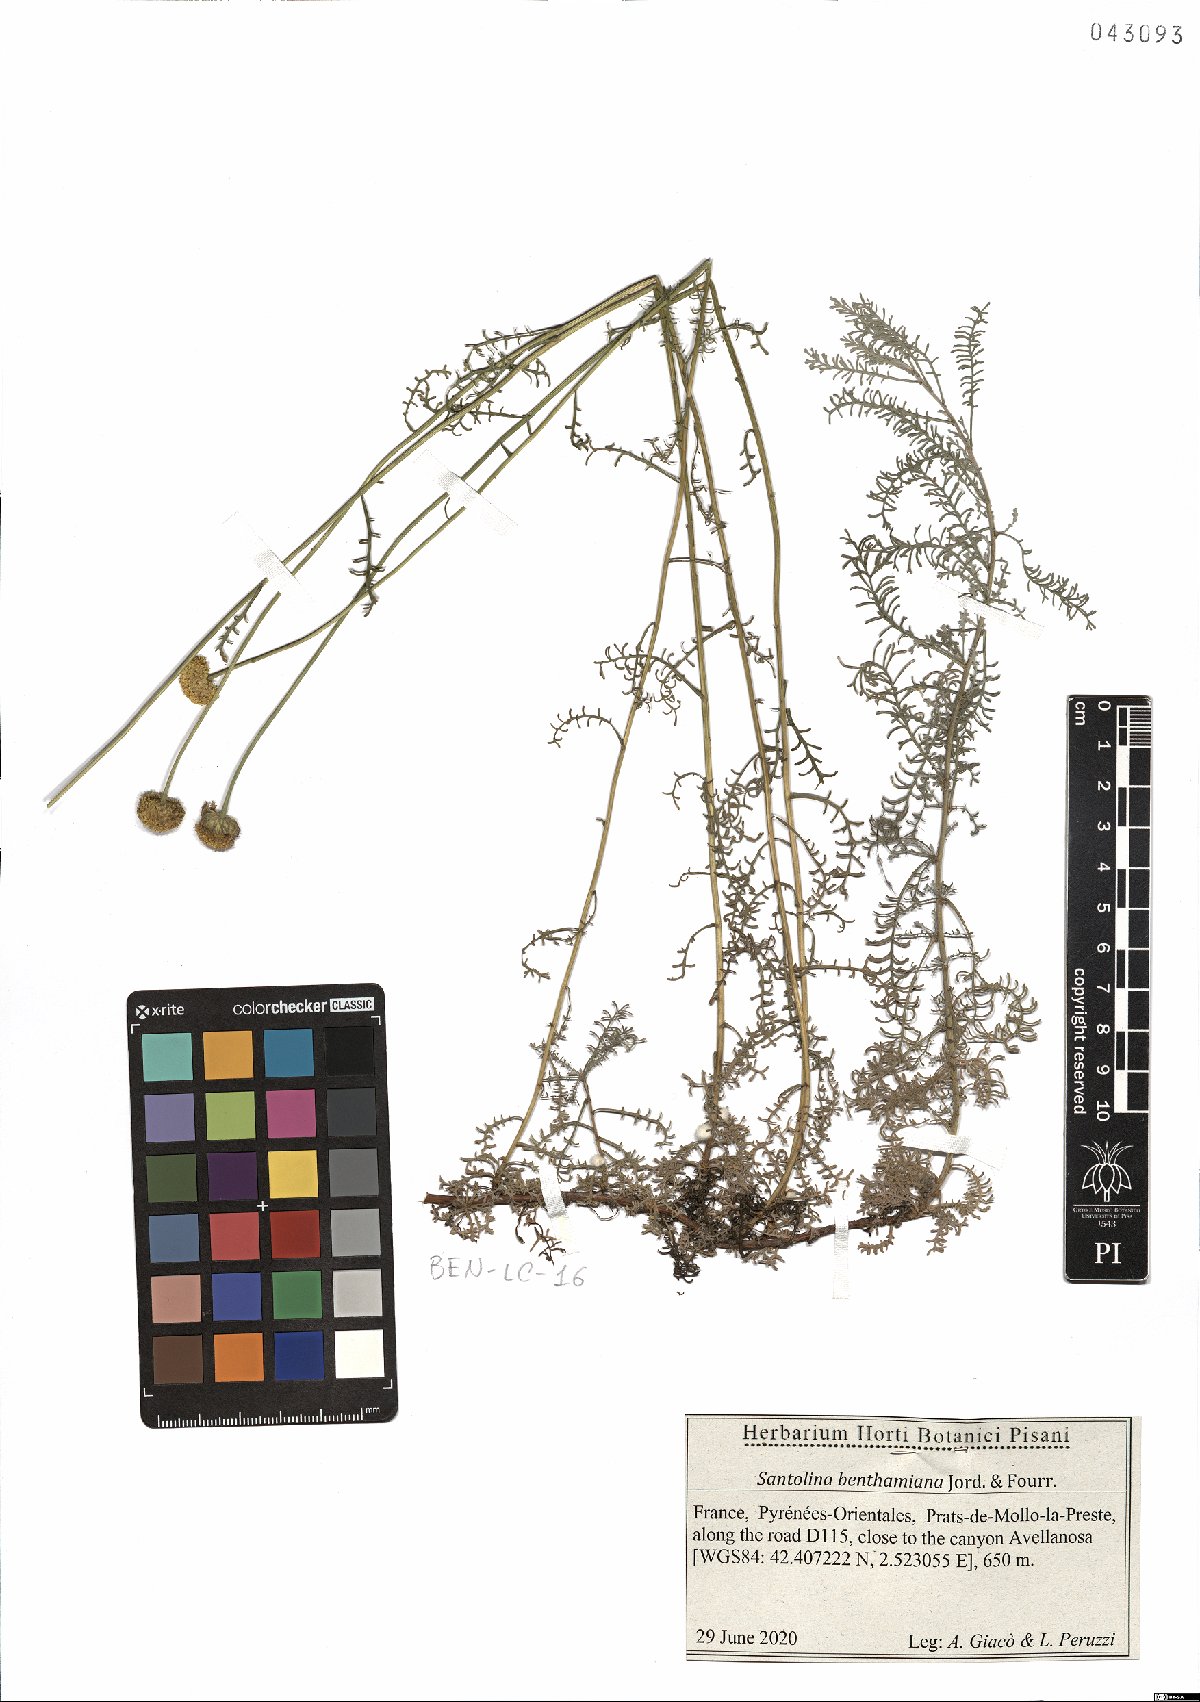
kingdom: Plantae
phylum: Tracheophyta
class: Magnoliopsida
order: Asterales
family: Asteraceae
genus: Santolina
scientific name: Santolina benthamiana
